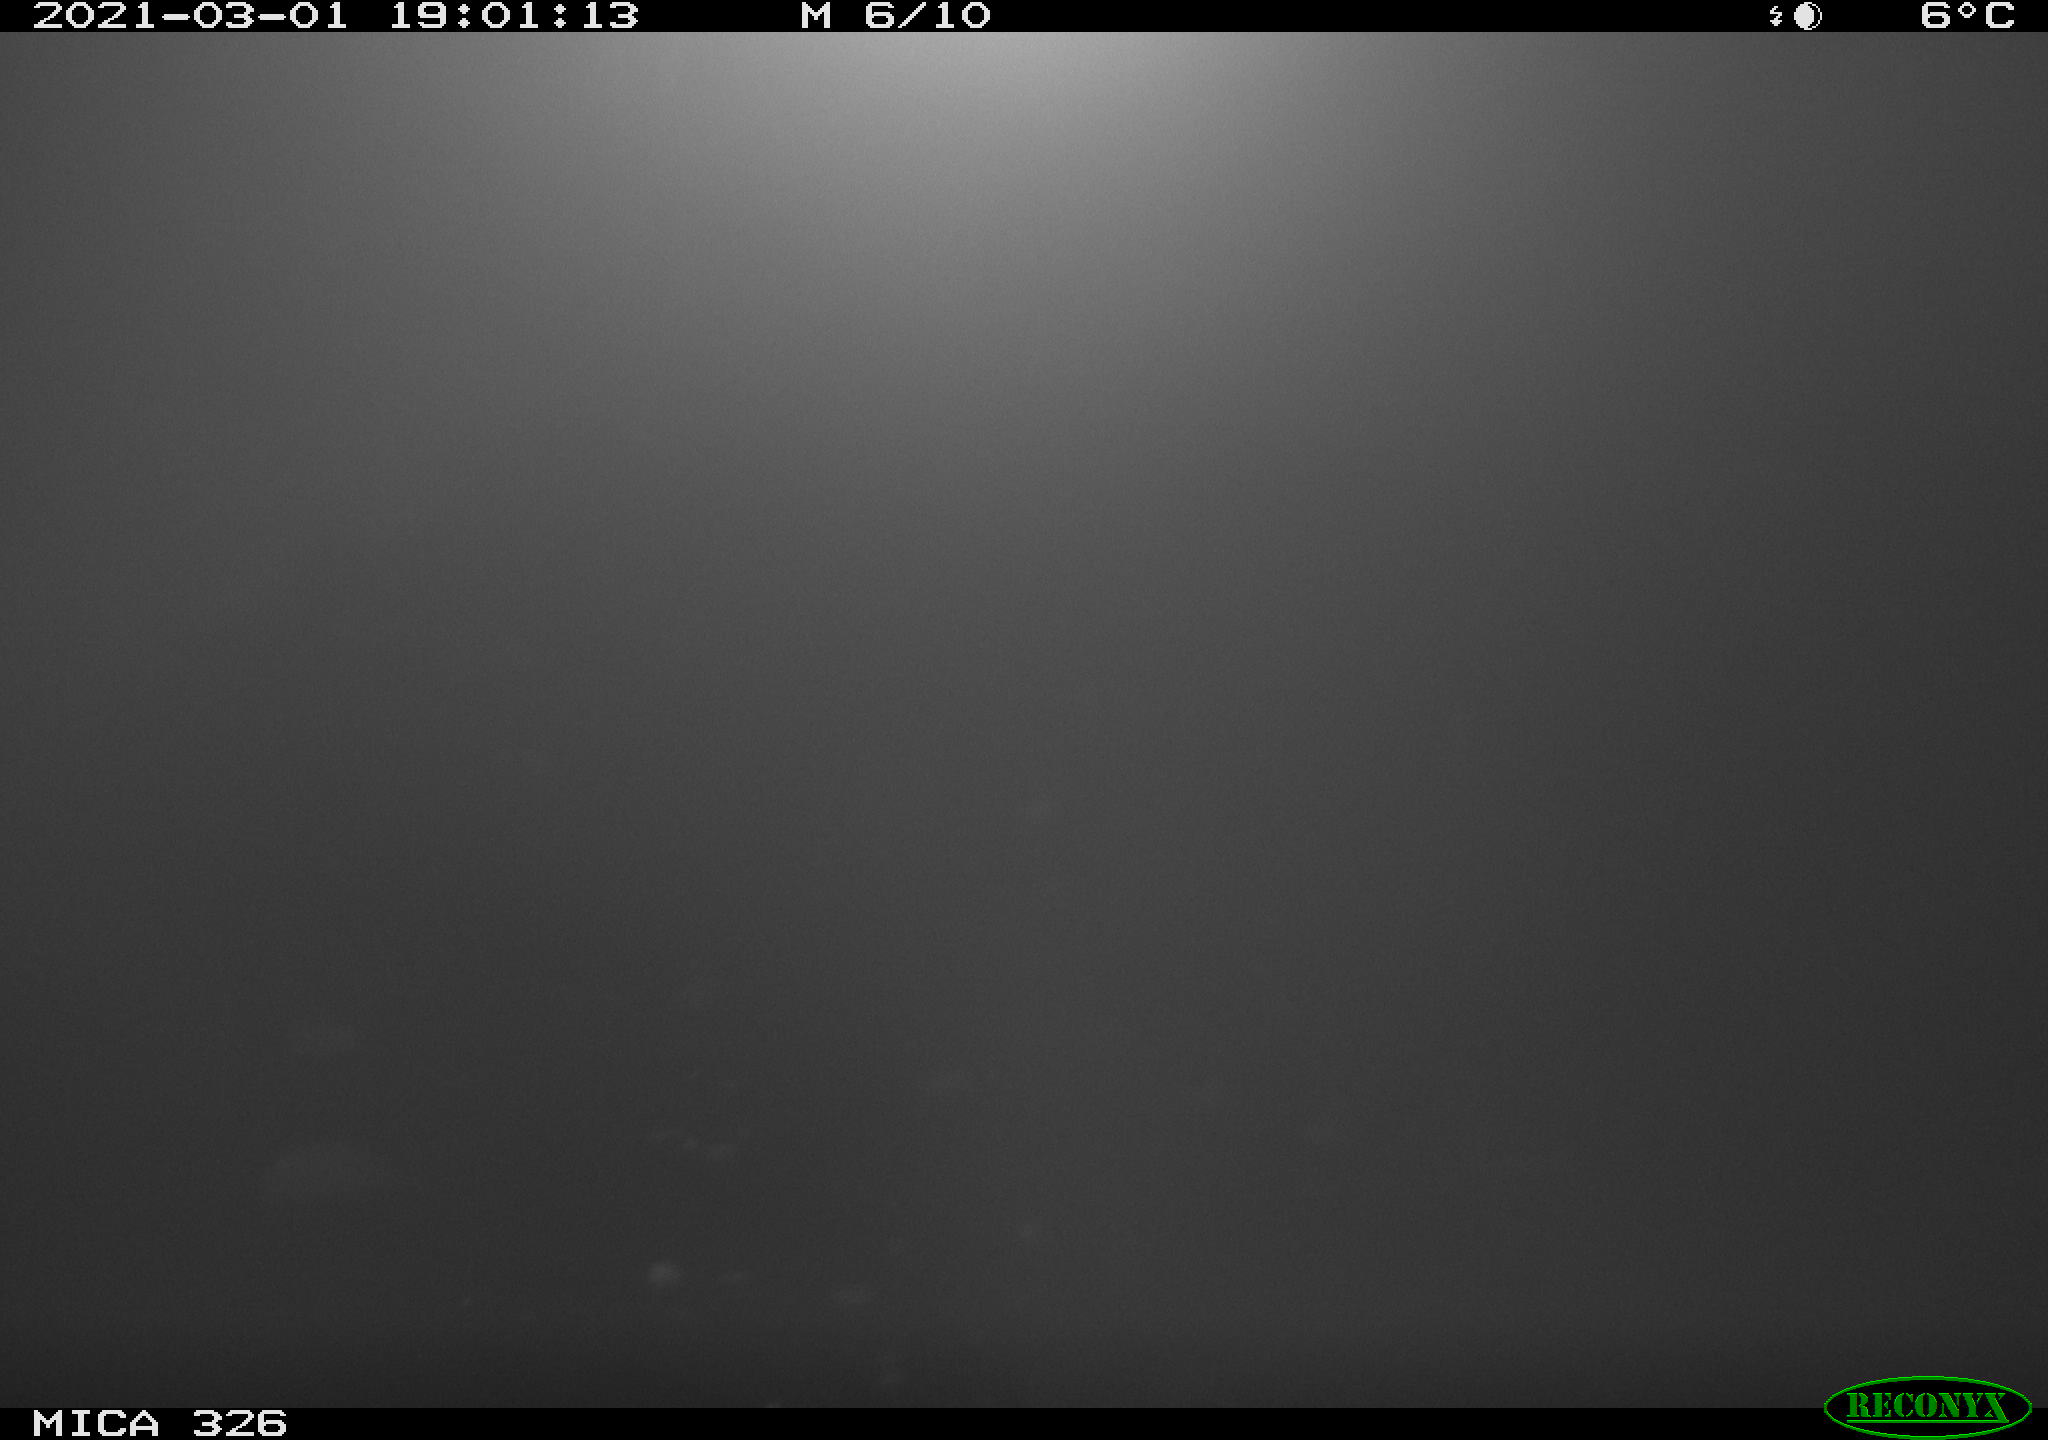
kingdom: Animalia
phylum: Chordata
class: Mammalia
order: Carnivora
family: Mustelidae
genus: Lutra
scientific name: Lutra lutra
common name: European otter
